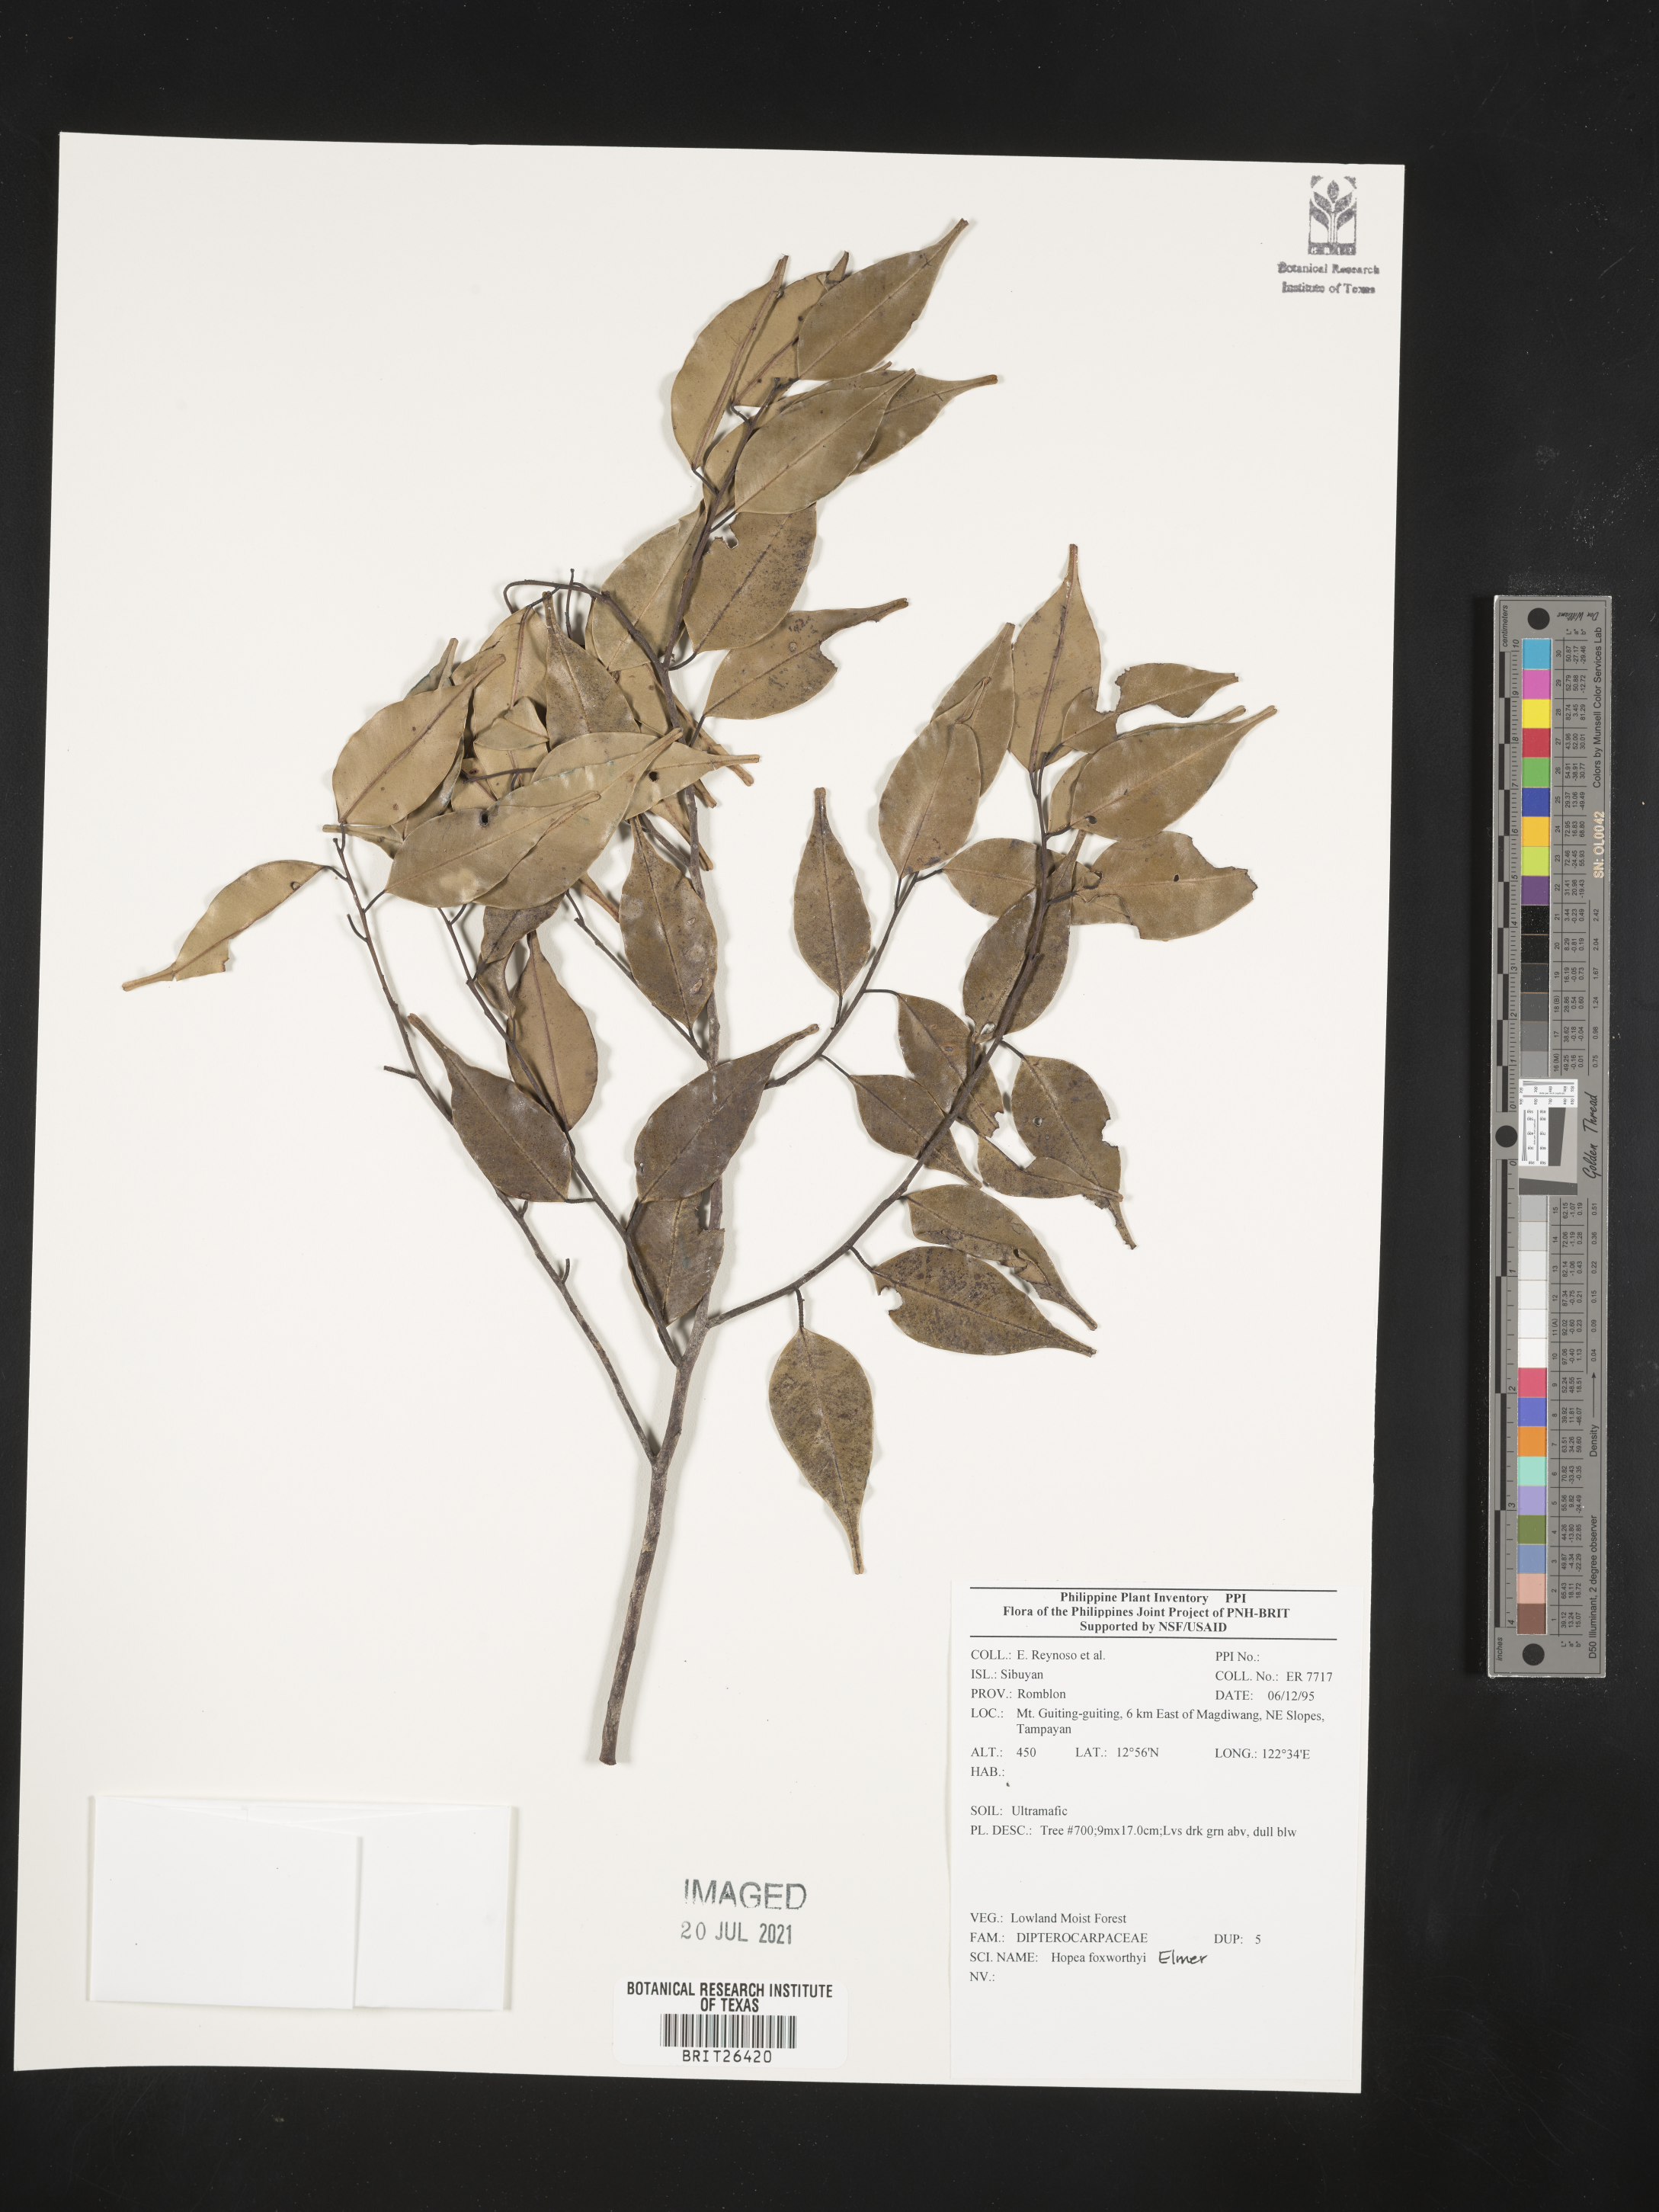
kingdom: Plantae
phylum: Tracheophyta
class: Magnoliopsida
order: Malvales
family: Dipterocarpaceae
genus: Hopea
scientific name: Hopea foxworthyi
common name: Dalingdingan
